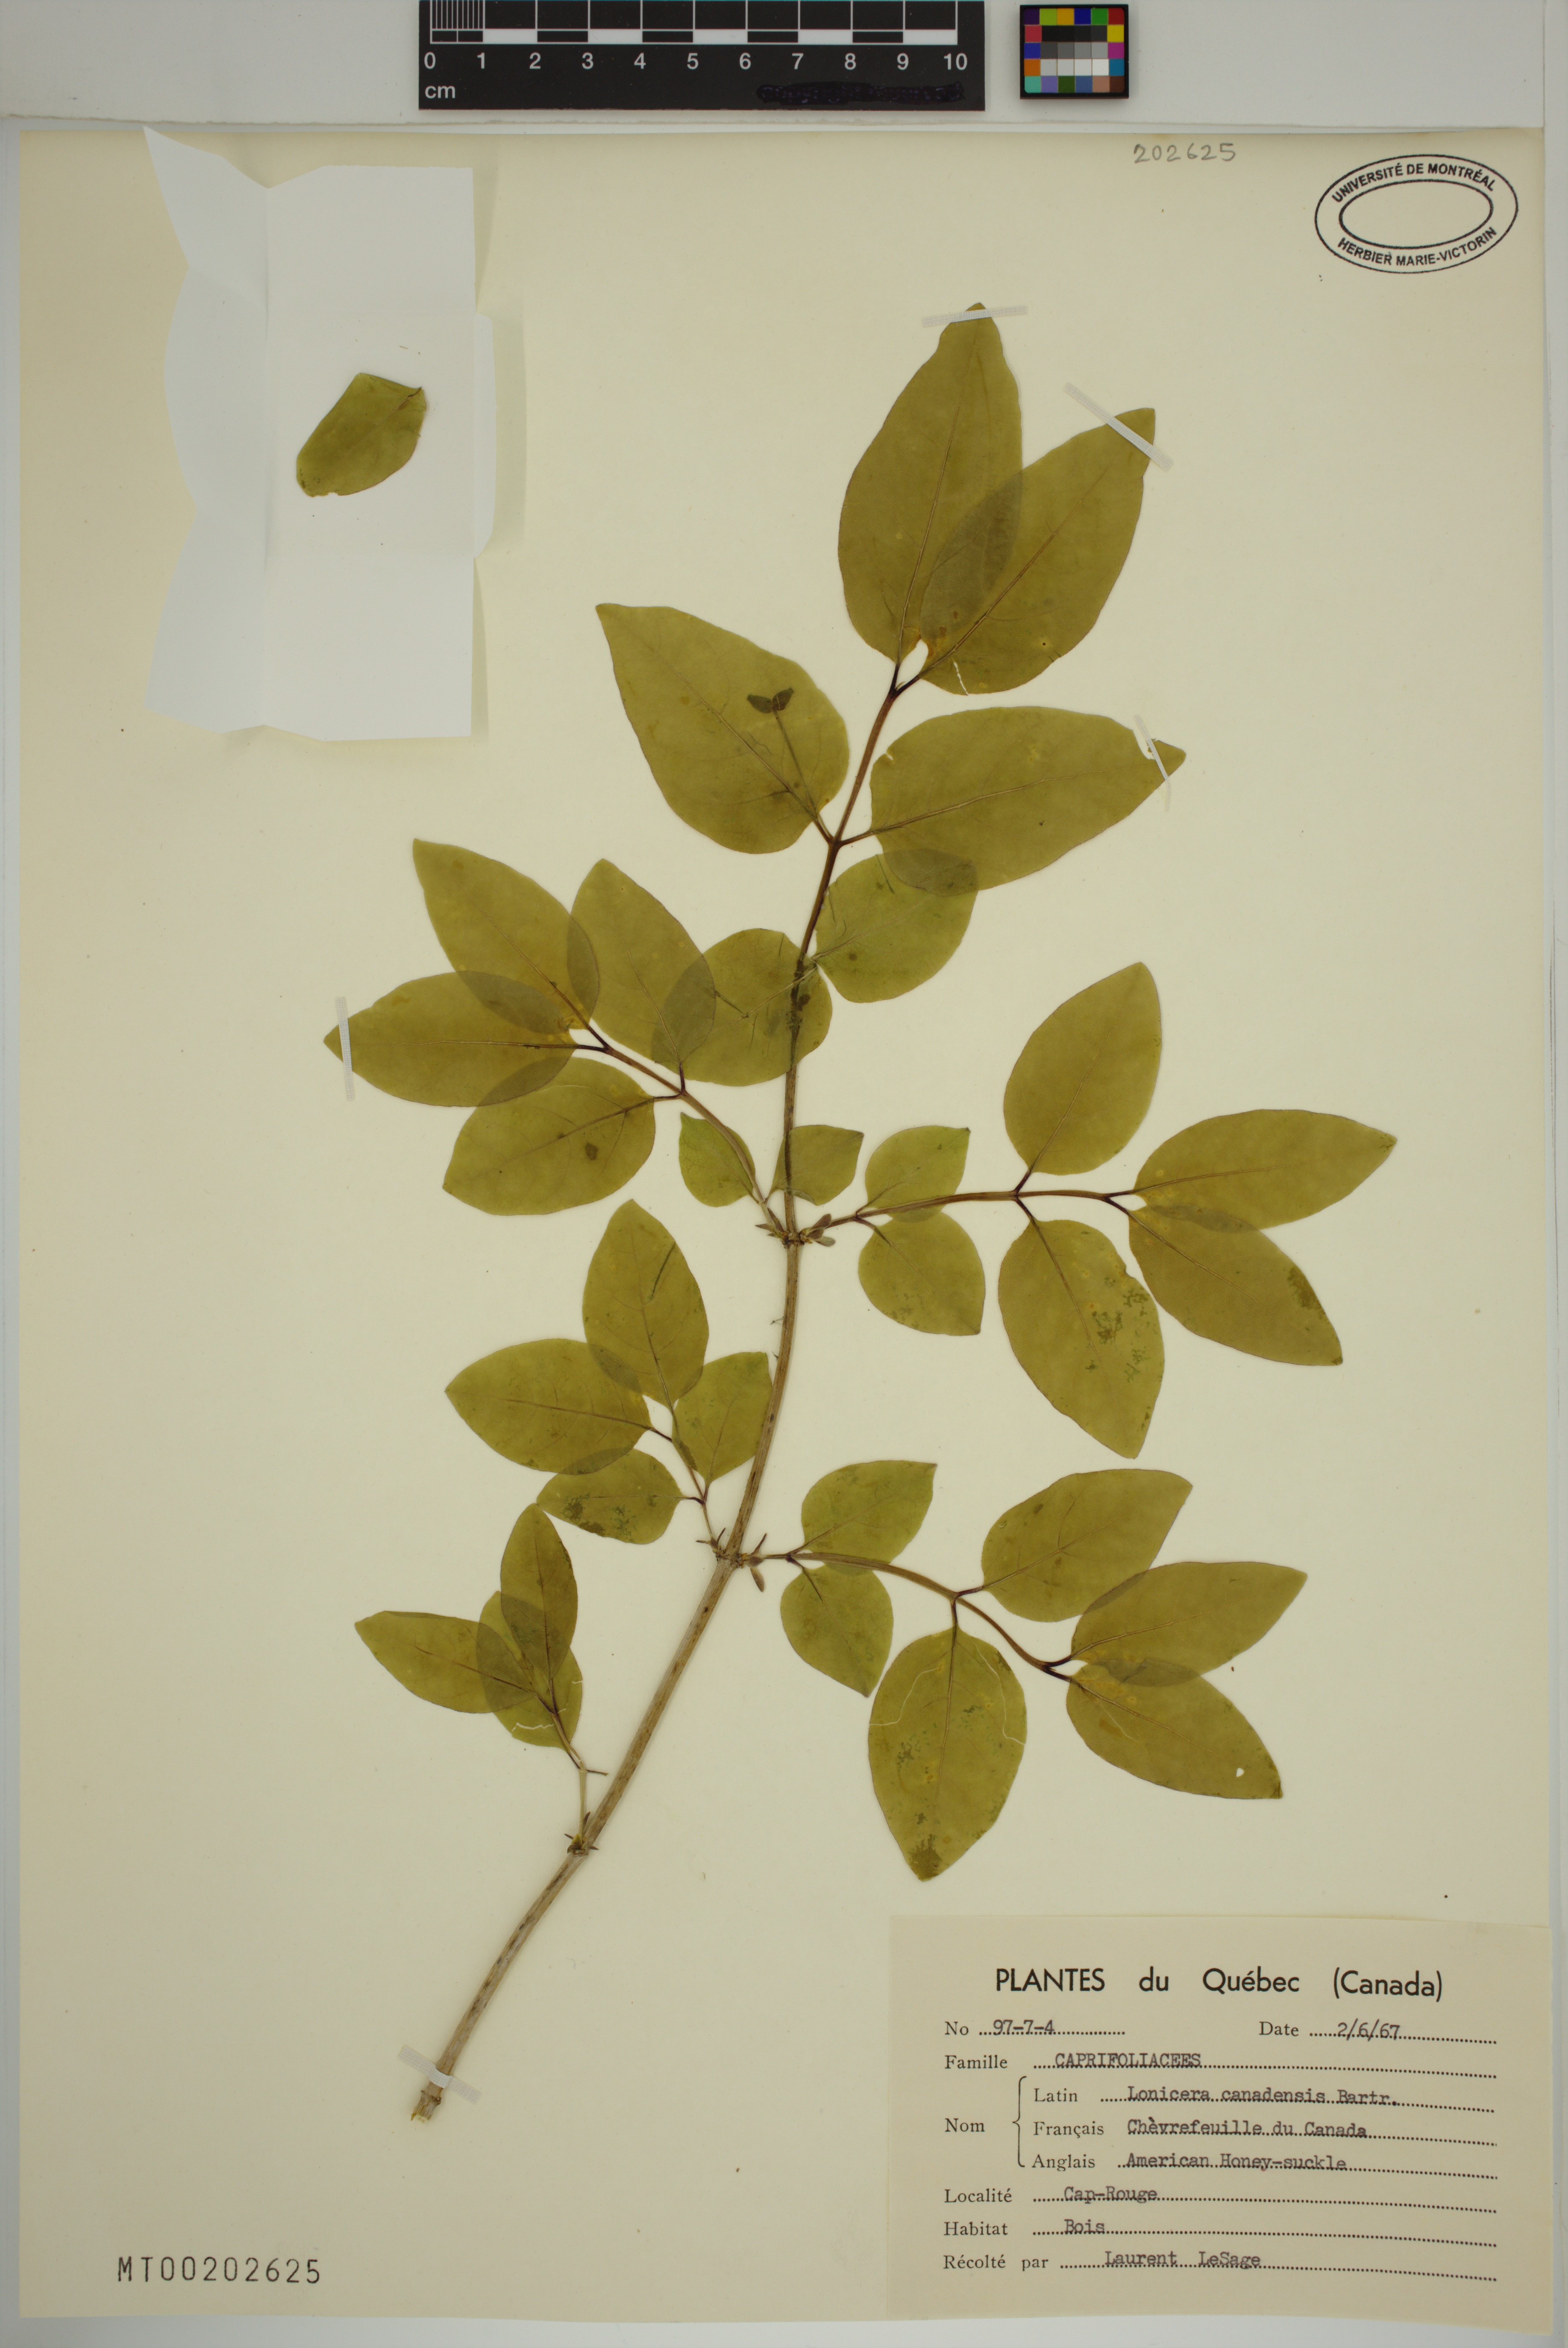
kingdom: Plantae
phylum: Tracheophyta
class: Magnoliopsida
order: Dipsacales
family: Caprifoliaceae
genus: Lonicera
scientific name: Lonicera canadensis
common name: American fly-honeysuckle
